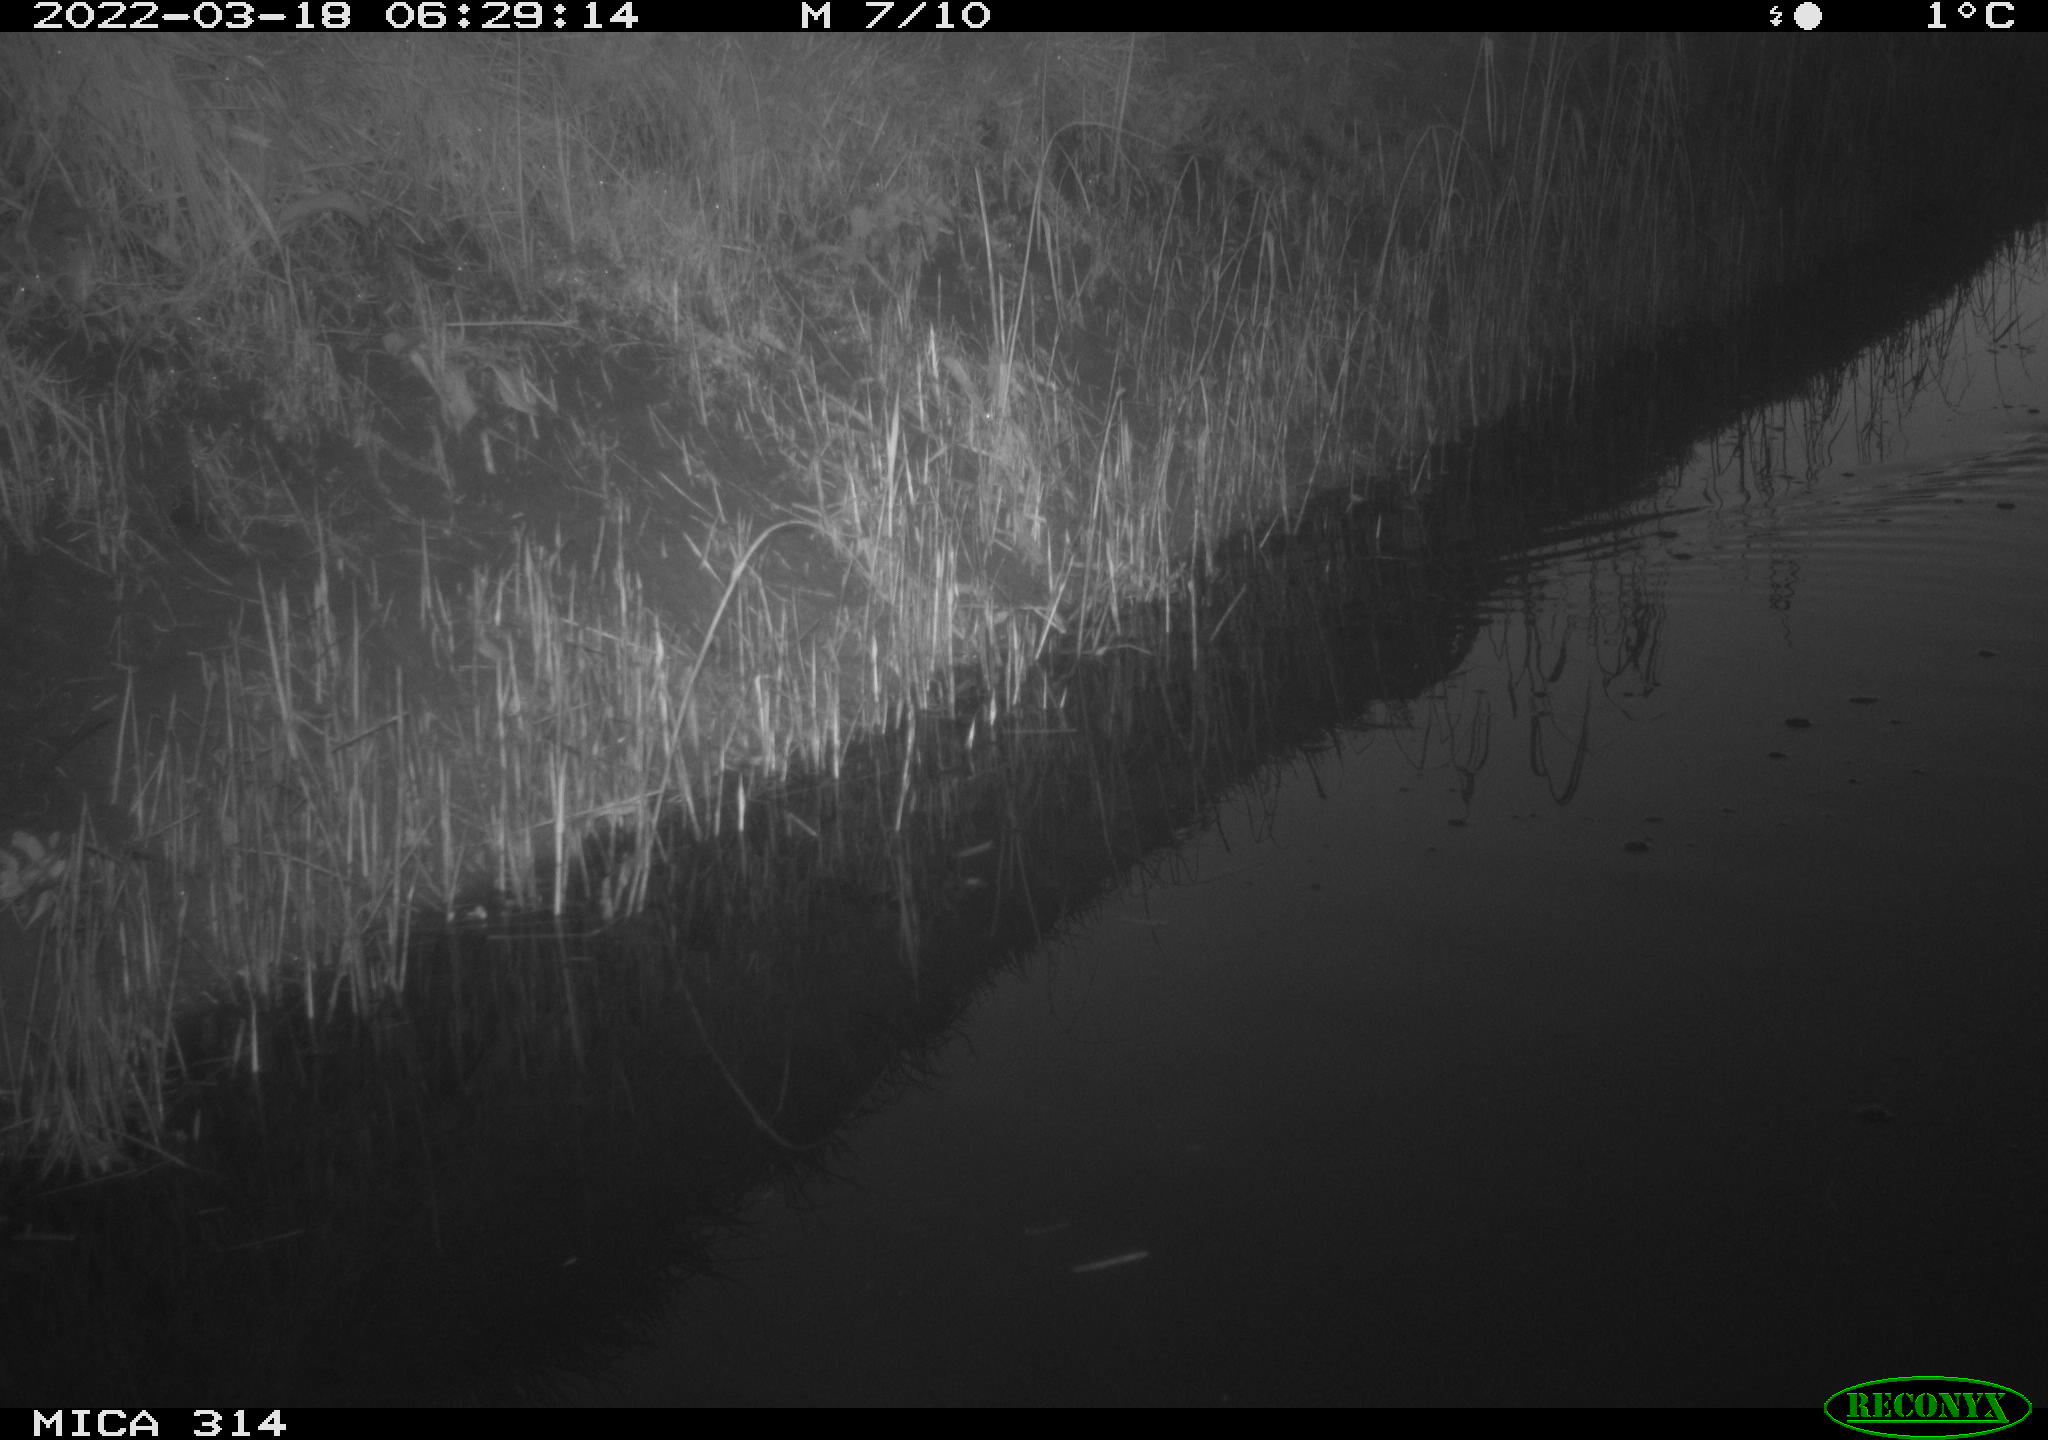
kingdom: Animalia
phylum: Chordata
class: Aves
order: Gruiformes
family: Rallidae
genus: Gallinula
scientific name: Gallinula chloropus
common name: Common moorhen
